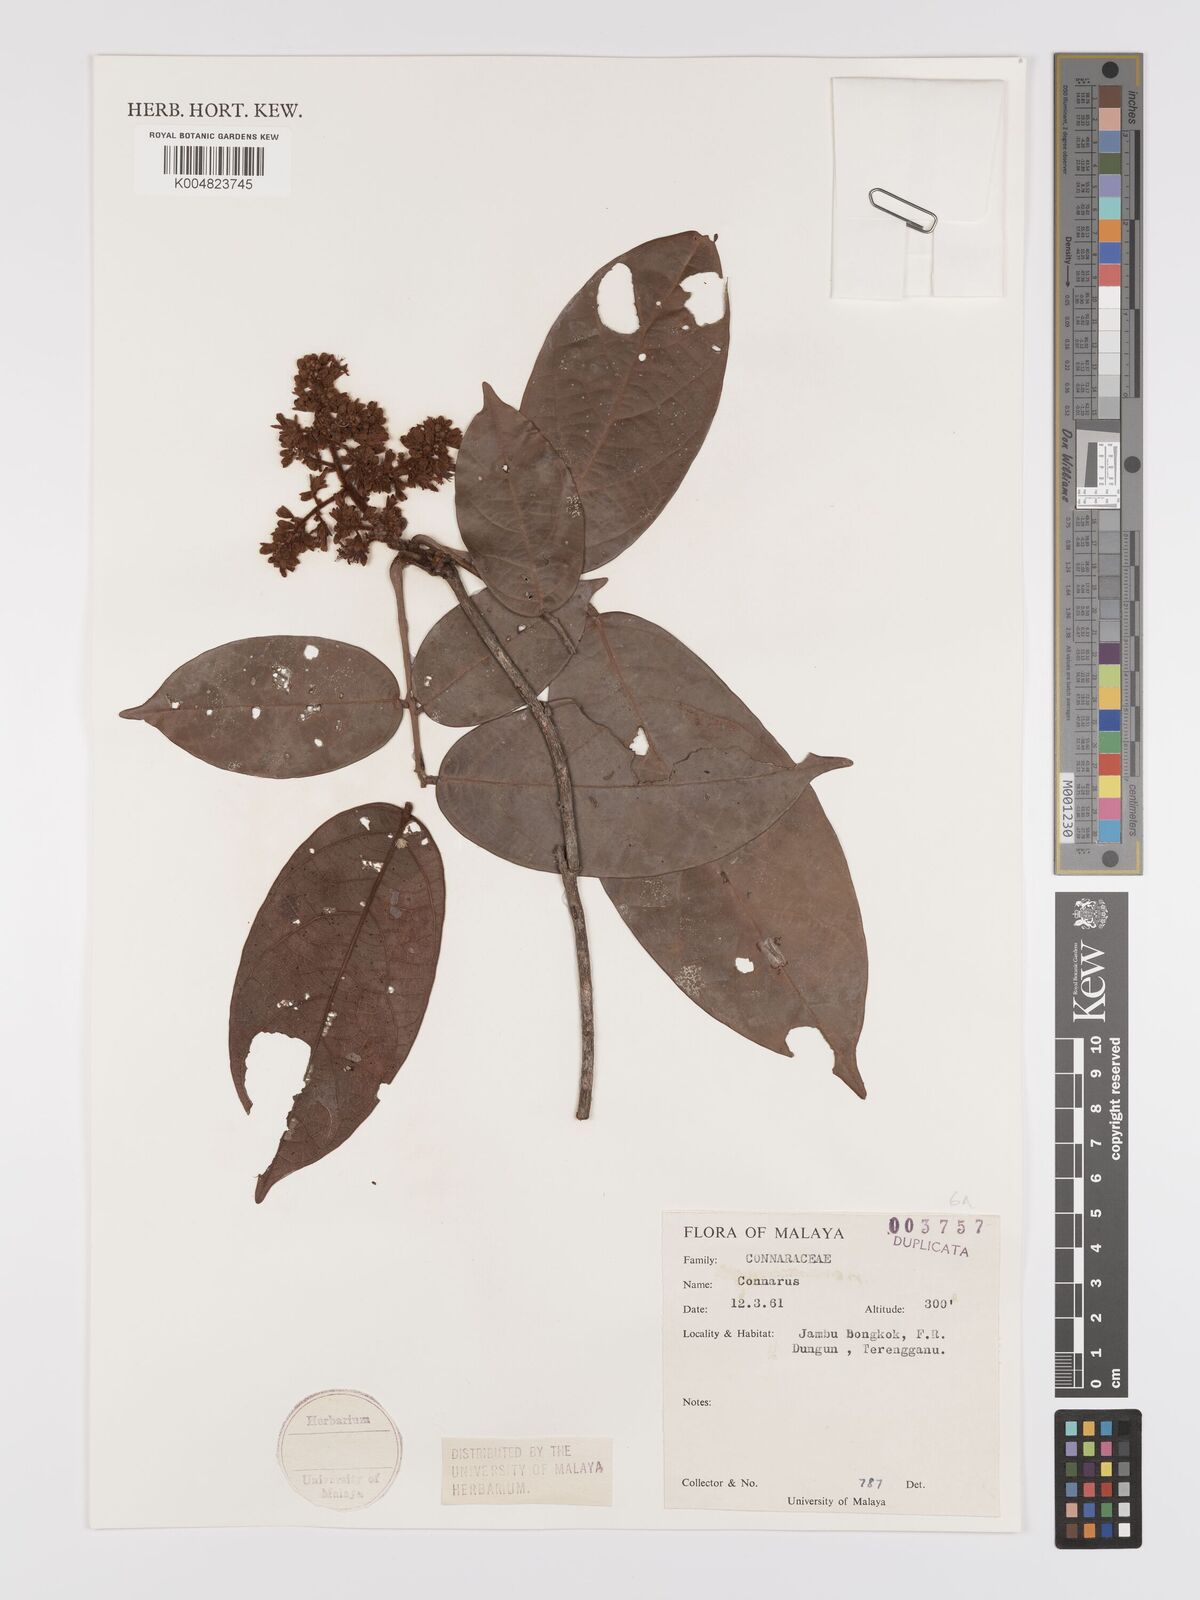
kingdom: Plantae
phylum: Tracheophyta
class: Magnoliopsida
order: Oxalidales
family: Connaraceae
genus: Connarus
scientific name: Connarus
